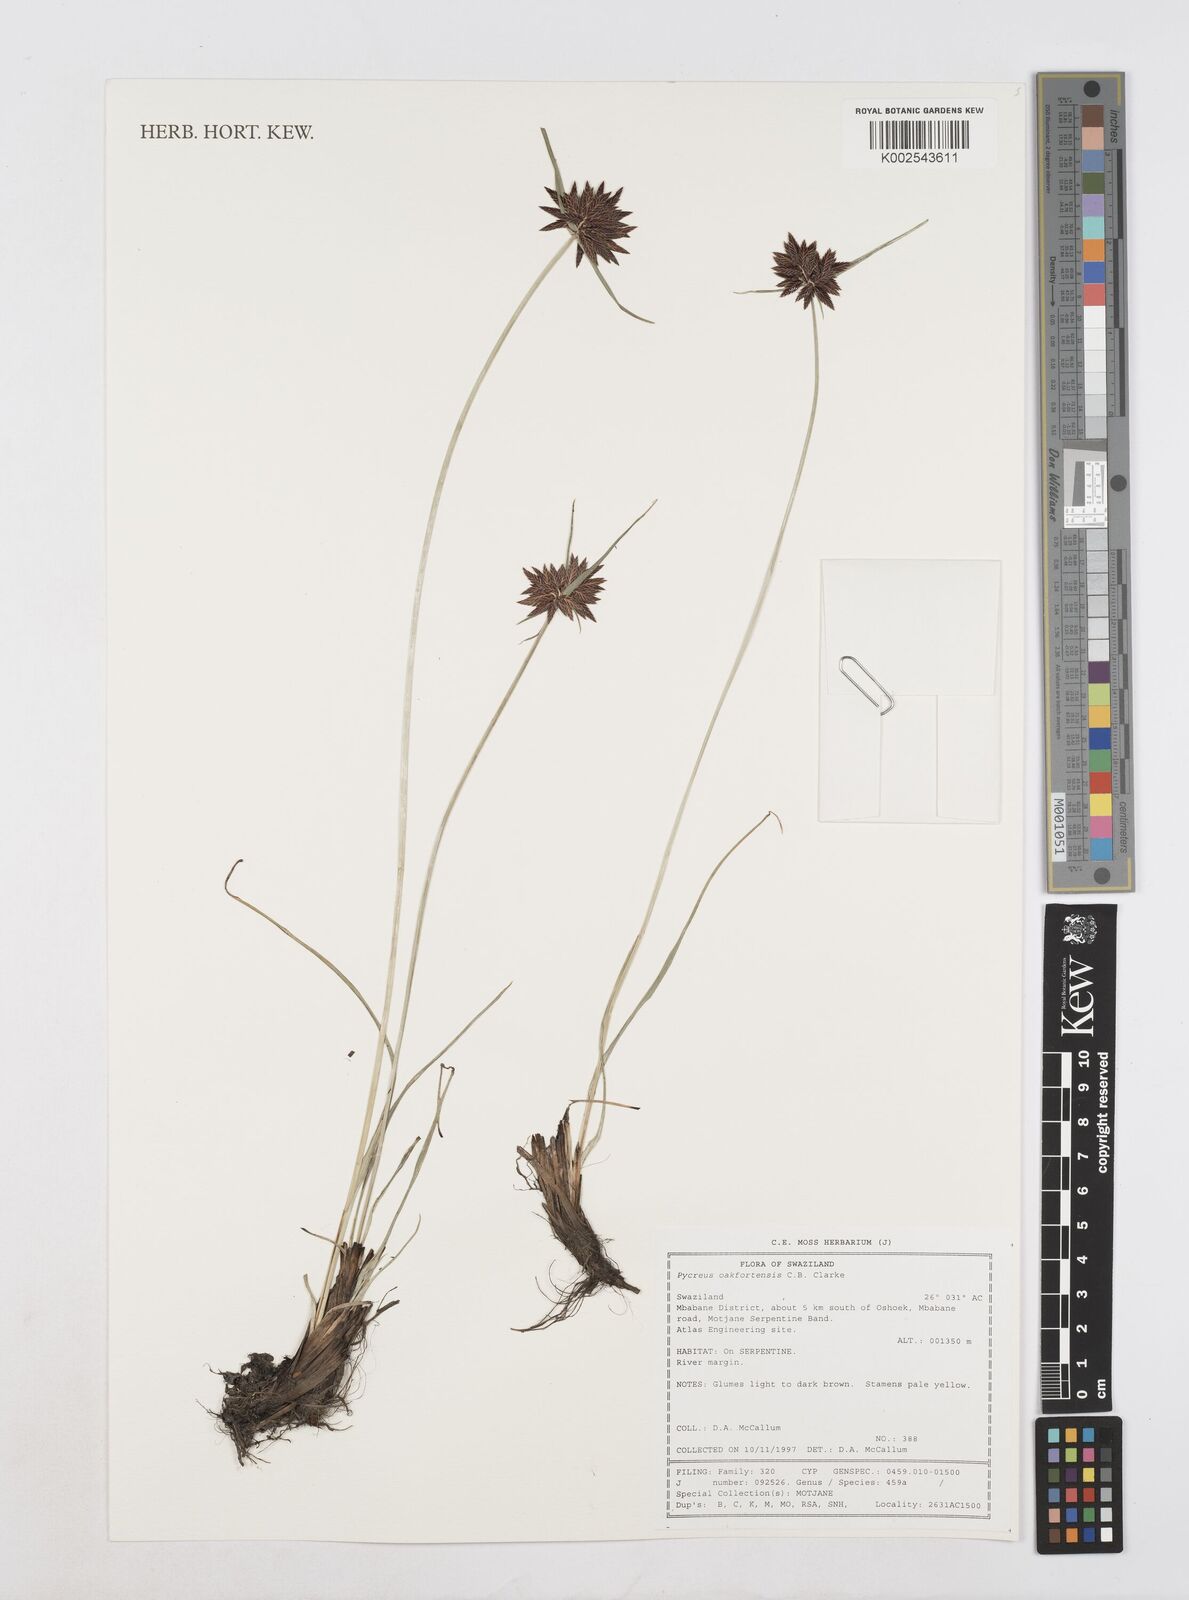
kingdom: Plantae
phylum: Tracheophyta
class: Liliopsida
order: Poales
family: Cyperaceae
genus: Cyperus
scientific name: Cyperus oakfortensis
